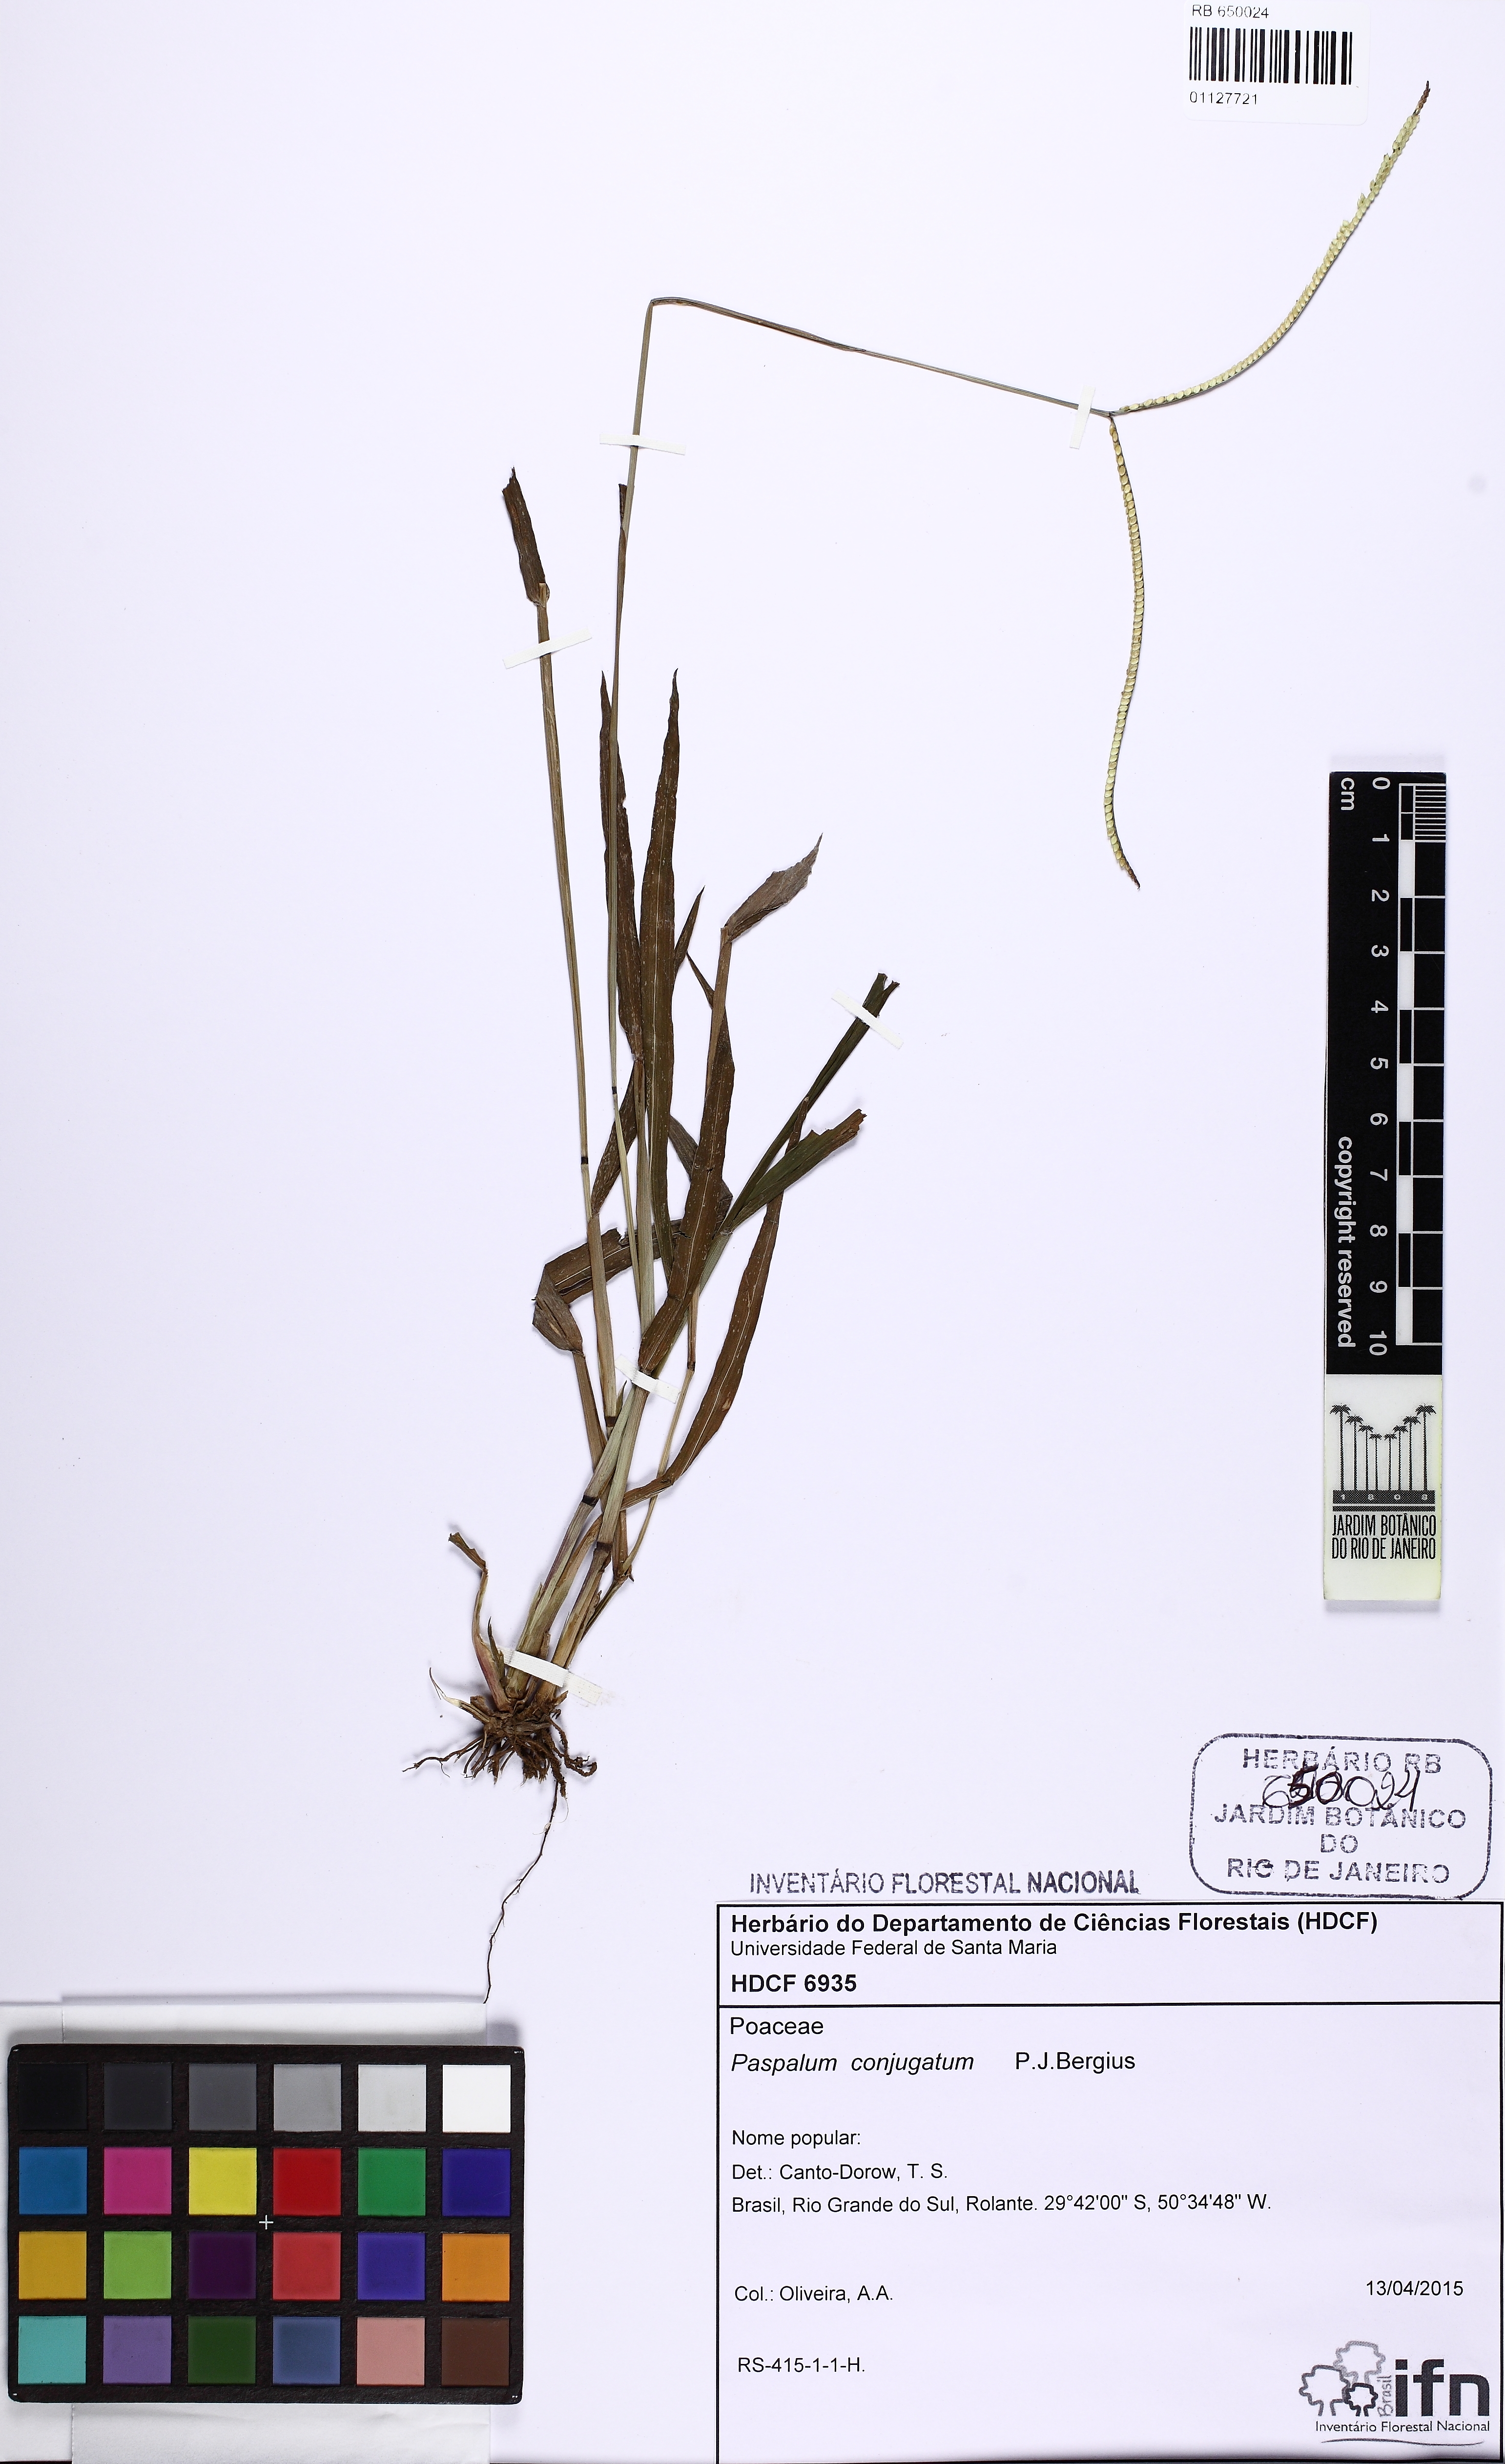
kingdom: Plantae
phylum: Tracheophyta
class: Liliopsida
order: Poales
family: Poaceae
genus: Paspalum
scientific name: Paspalum conjugatum
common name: Hilograss
